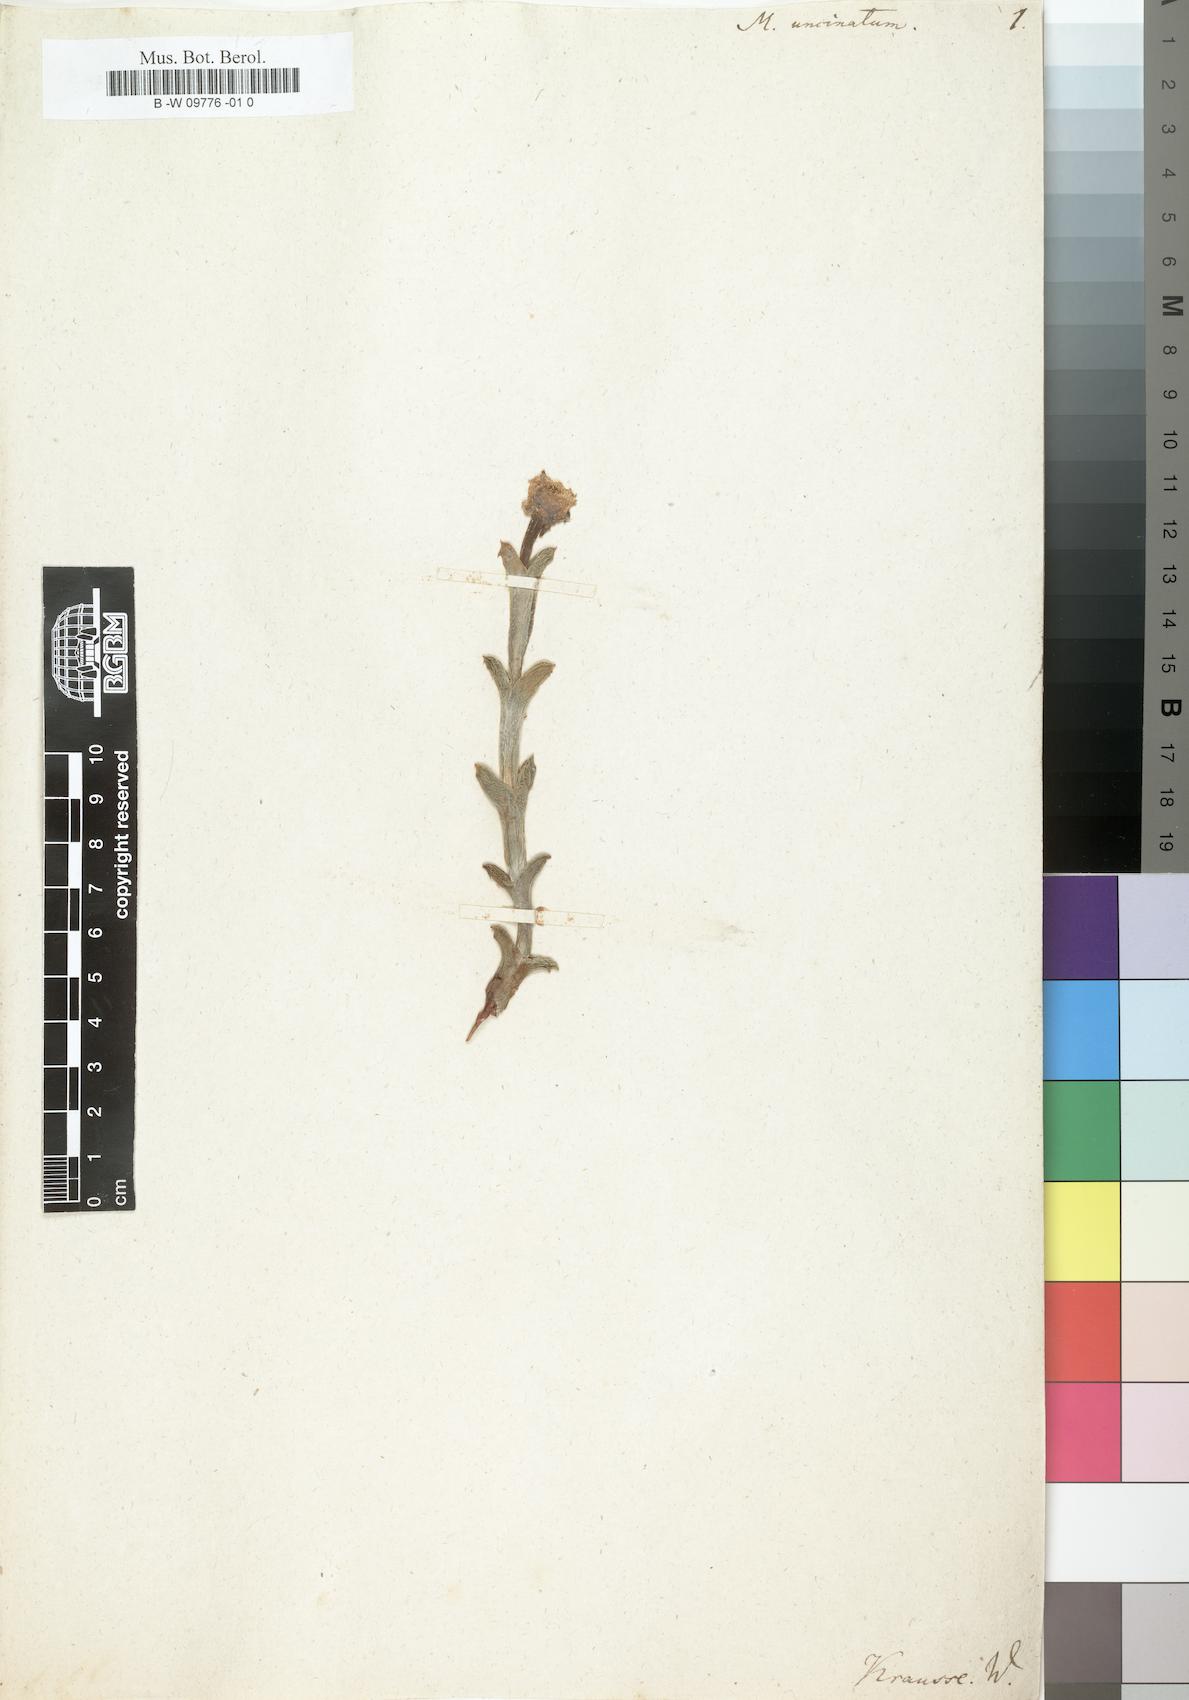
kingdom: Plantae
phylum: Tracheophyta
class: Magnoliopsida
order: Caryophyllales
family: Aizoaceae
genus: Ruschia
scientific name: Ruschia uncinata
